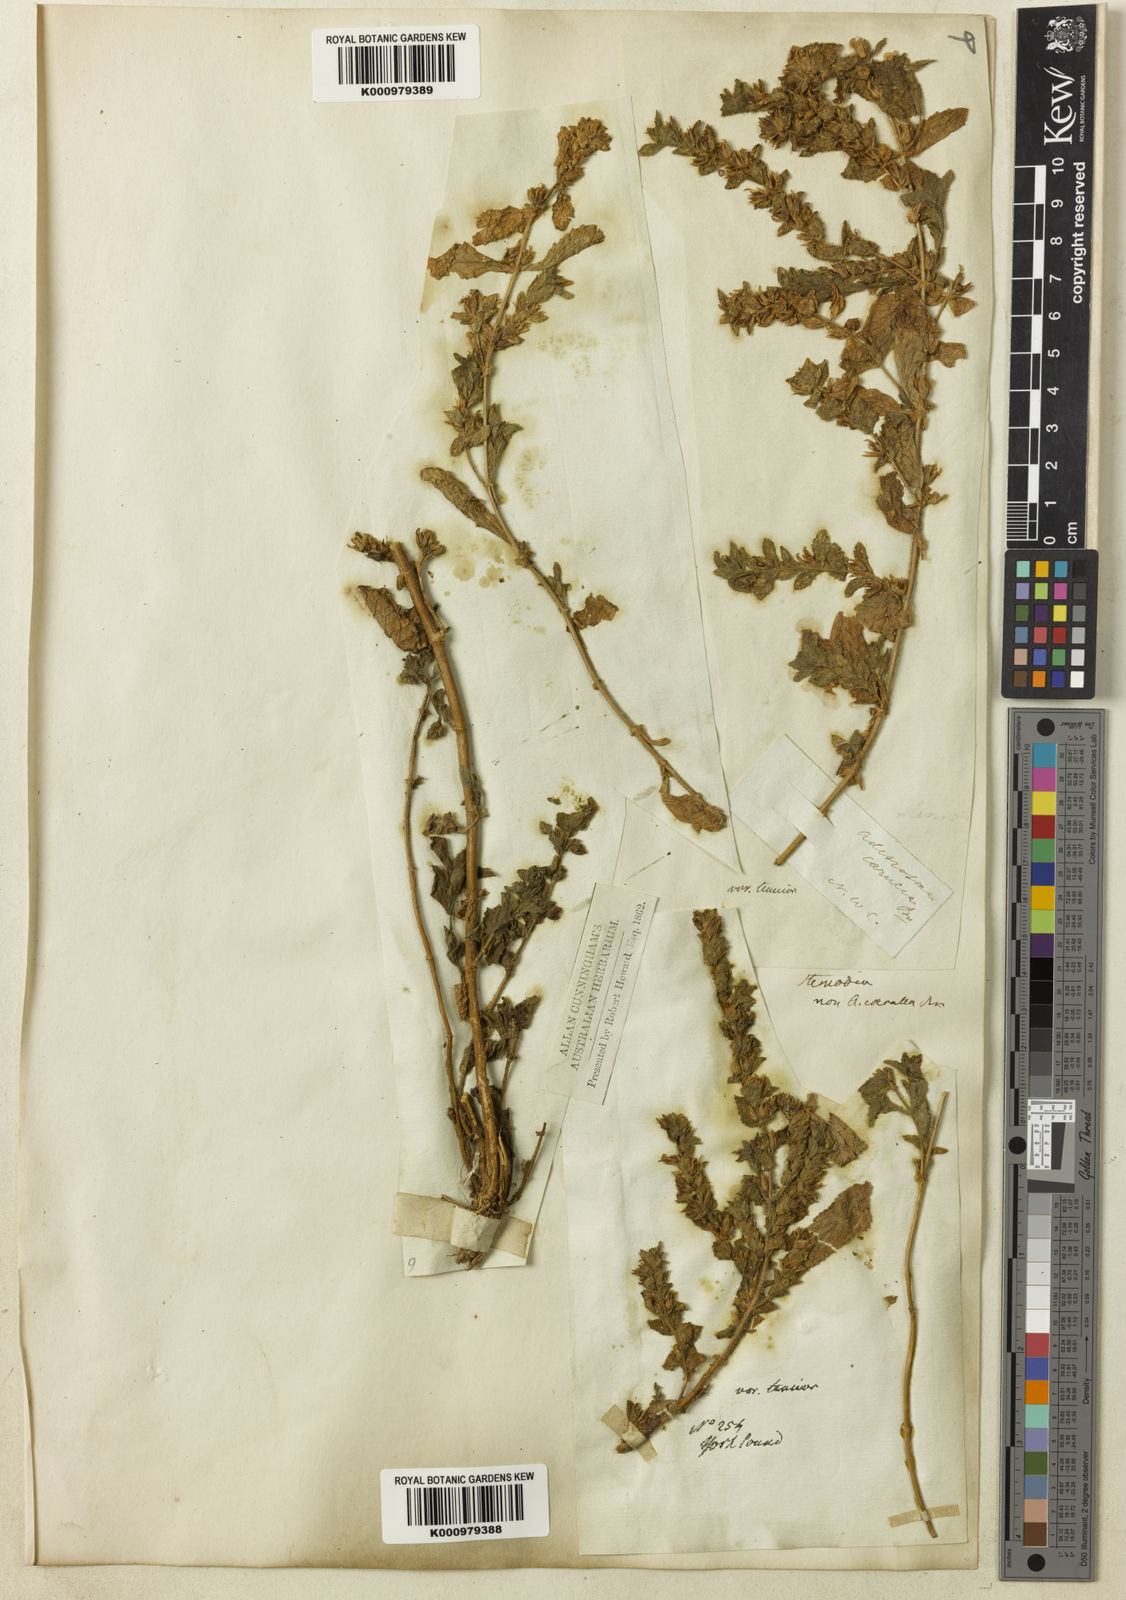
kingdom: Plantae
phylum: Tracheophyta
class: Magnoliopsida
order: Lamiales
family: Plantaginaceae
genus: Stemodia
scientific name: Stemodia lythrifolia
